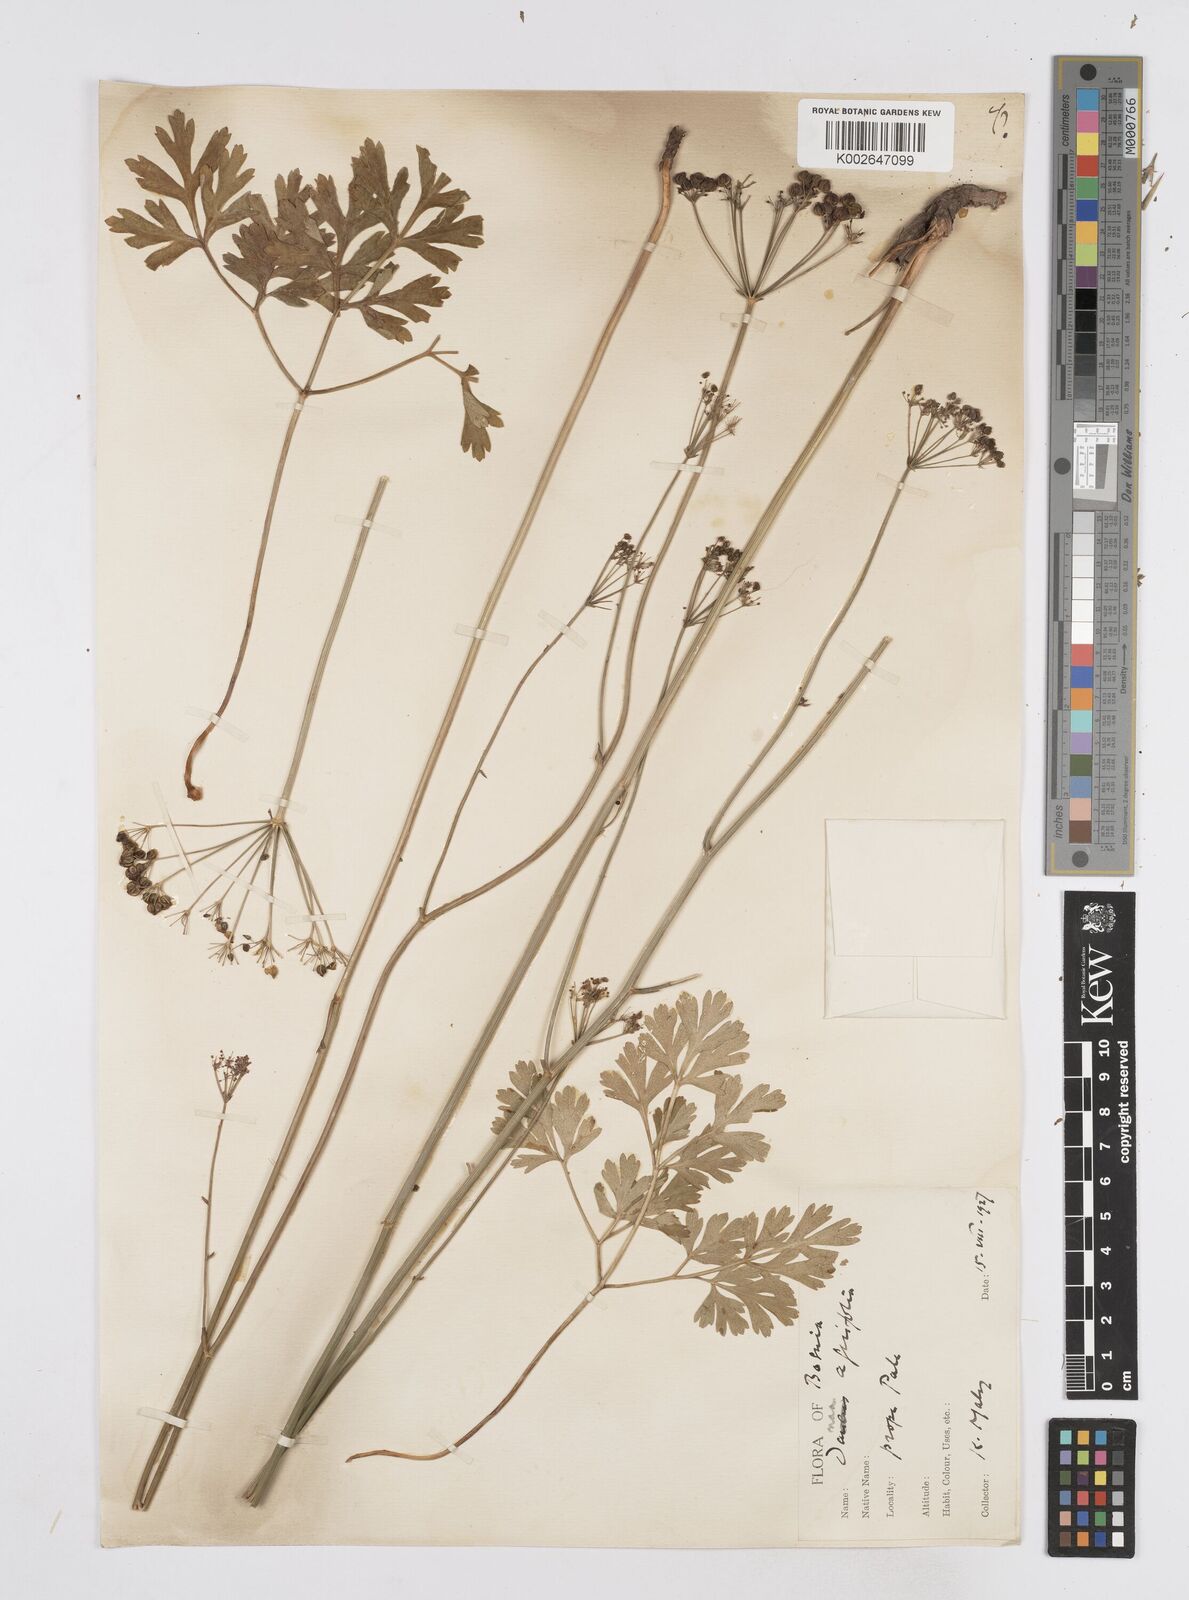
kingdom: Plantae
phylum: Tracheophyta
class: Magnoliopsida
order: Apiales
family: Apiaceae
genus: Physospermum
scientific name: Physospermum cornubiense
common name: Bladderseed
